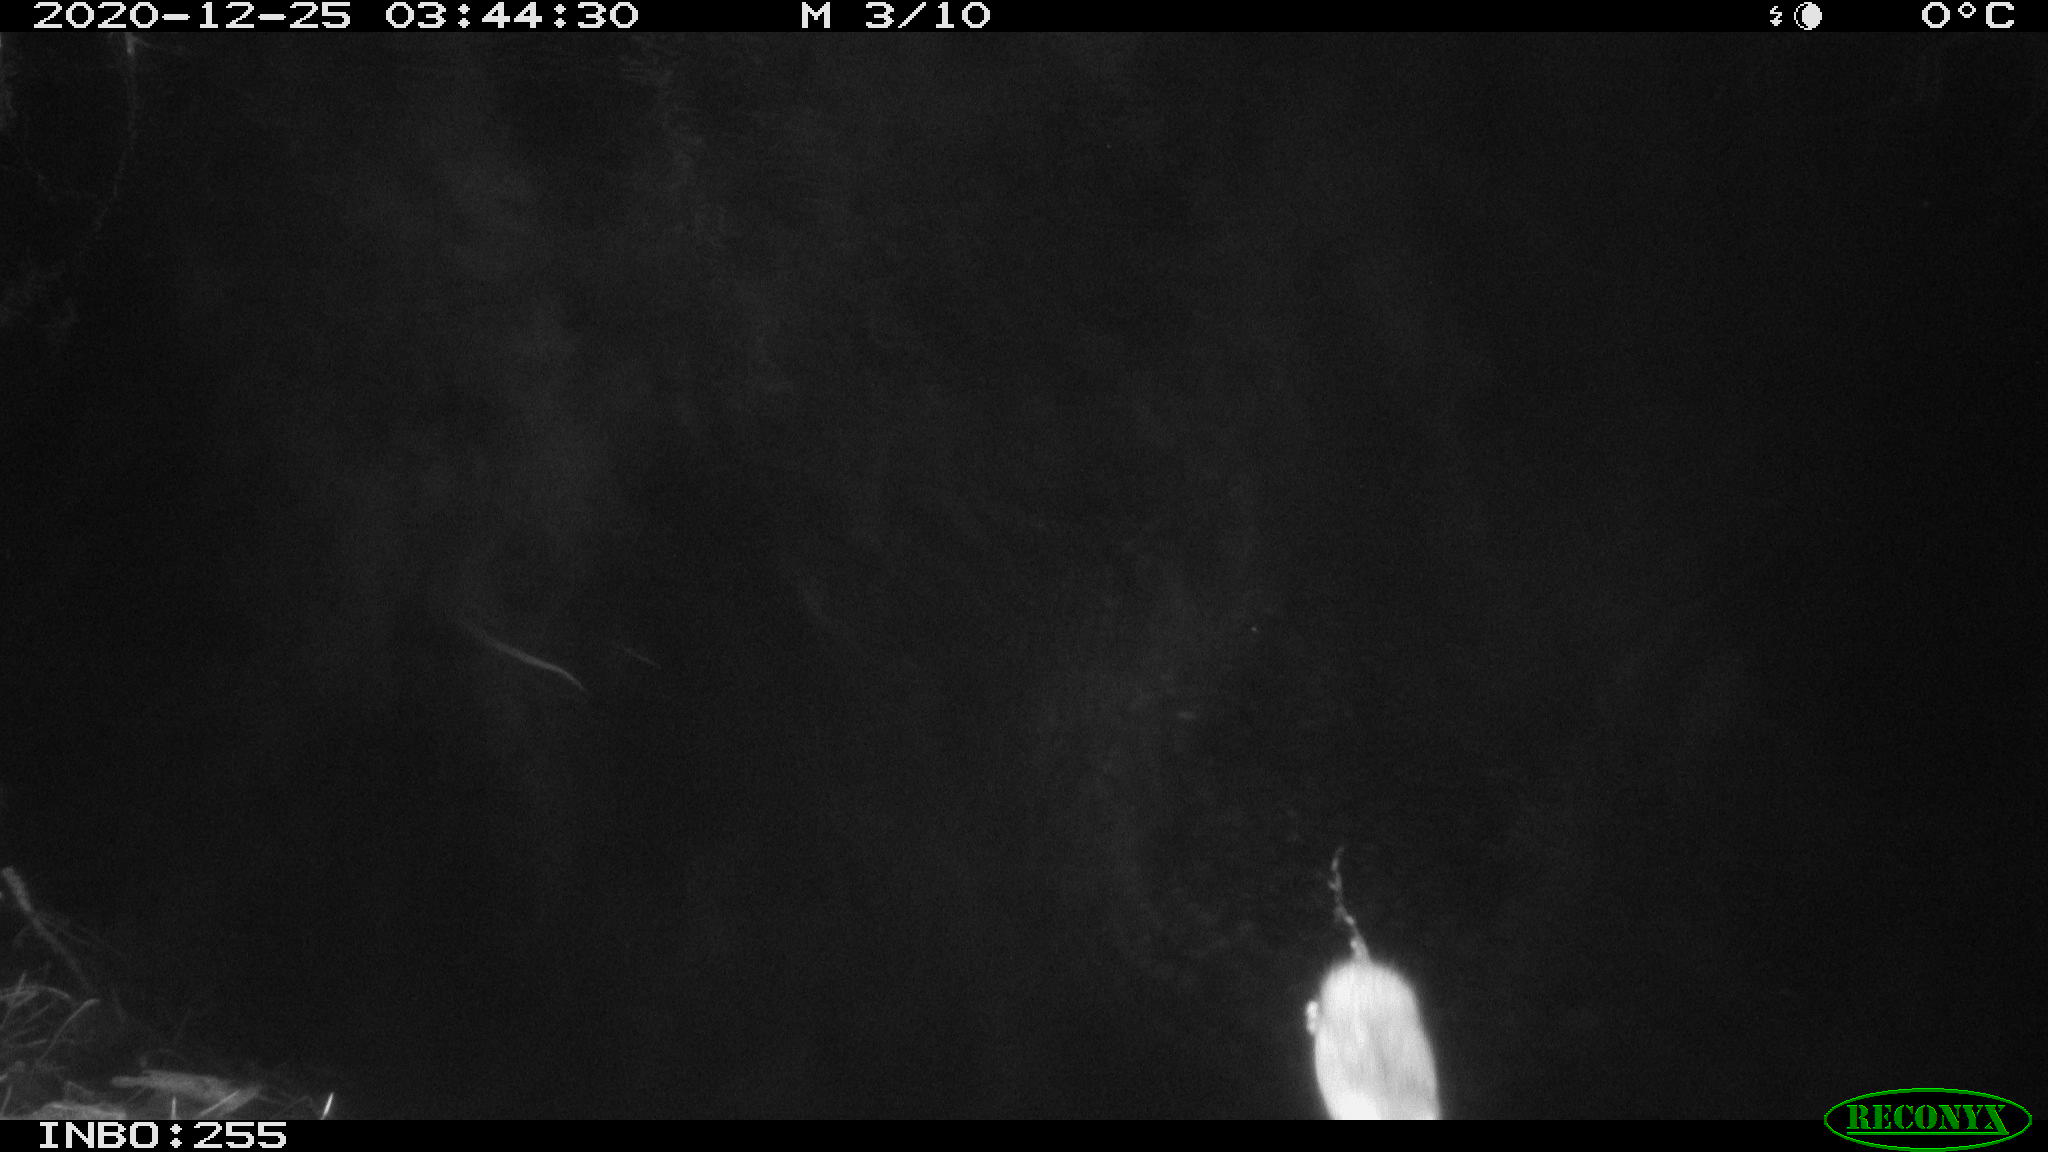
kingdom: Animalia
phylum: Chordata
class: Mammalia
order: Rodentia
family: Muridae
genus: Rattus
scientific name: Rattus norvegicus
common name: Brown rat
